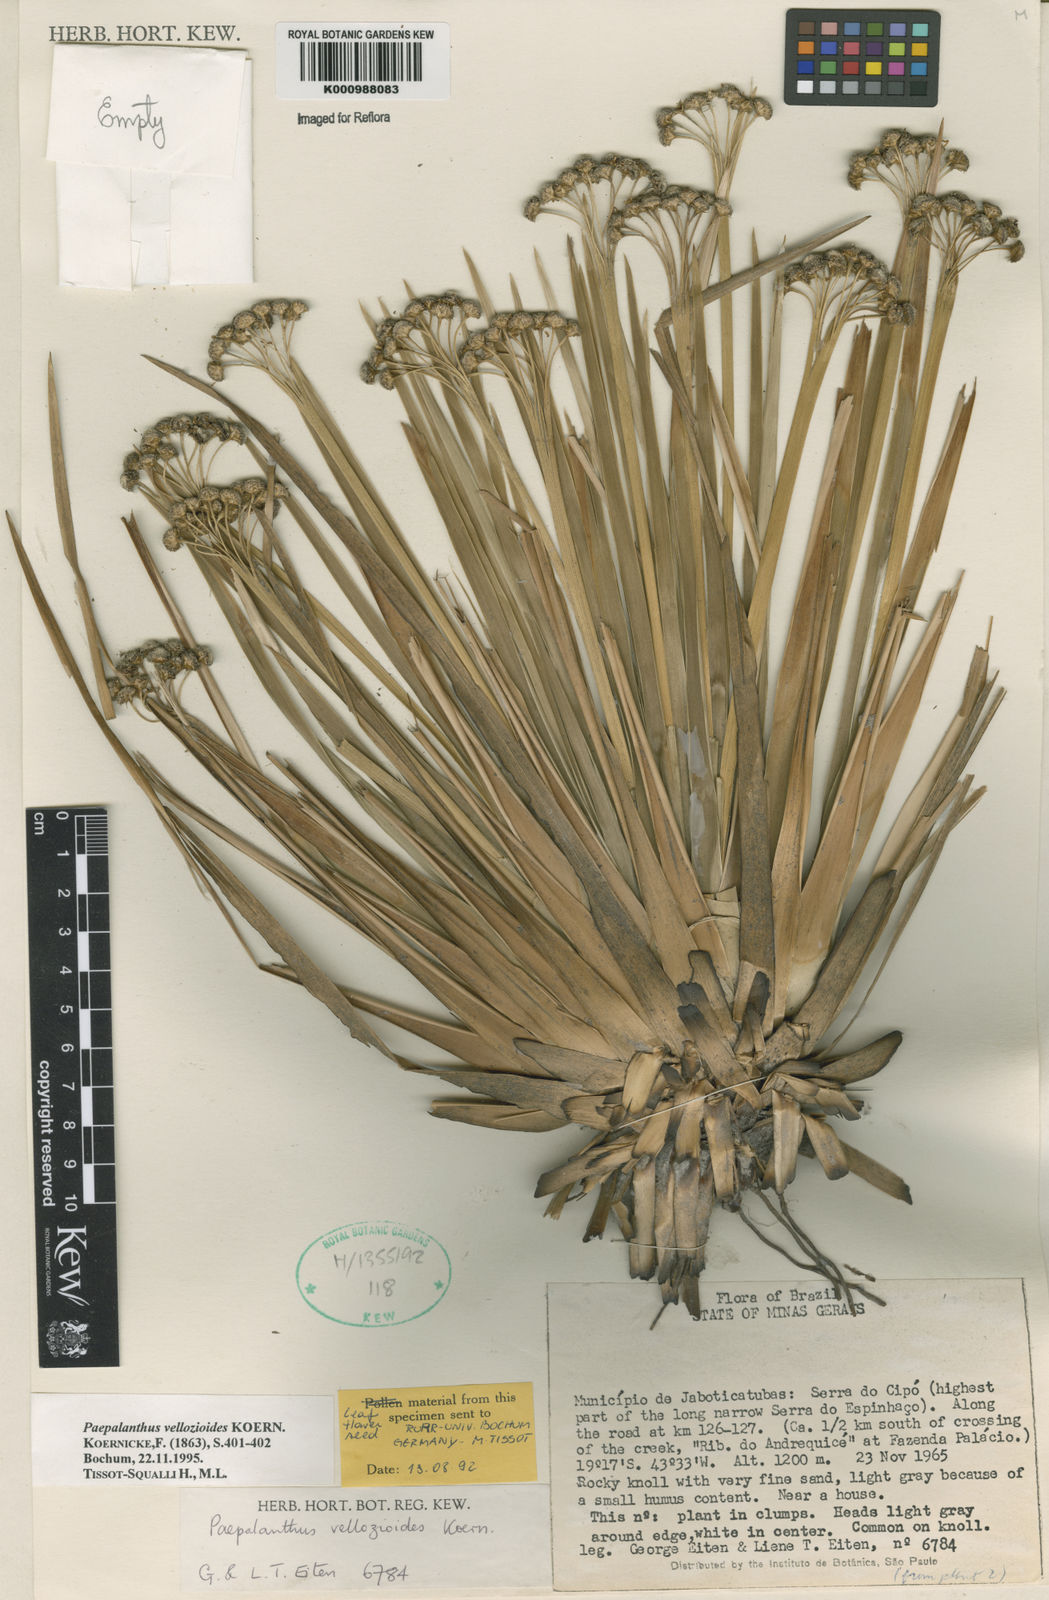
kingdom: Plantae
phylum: Tracheophyta
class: Liliopsida
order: Poales
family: Eriocaulaceae
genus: Paepalanthus
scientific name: Paepalanthus
